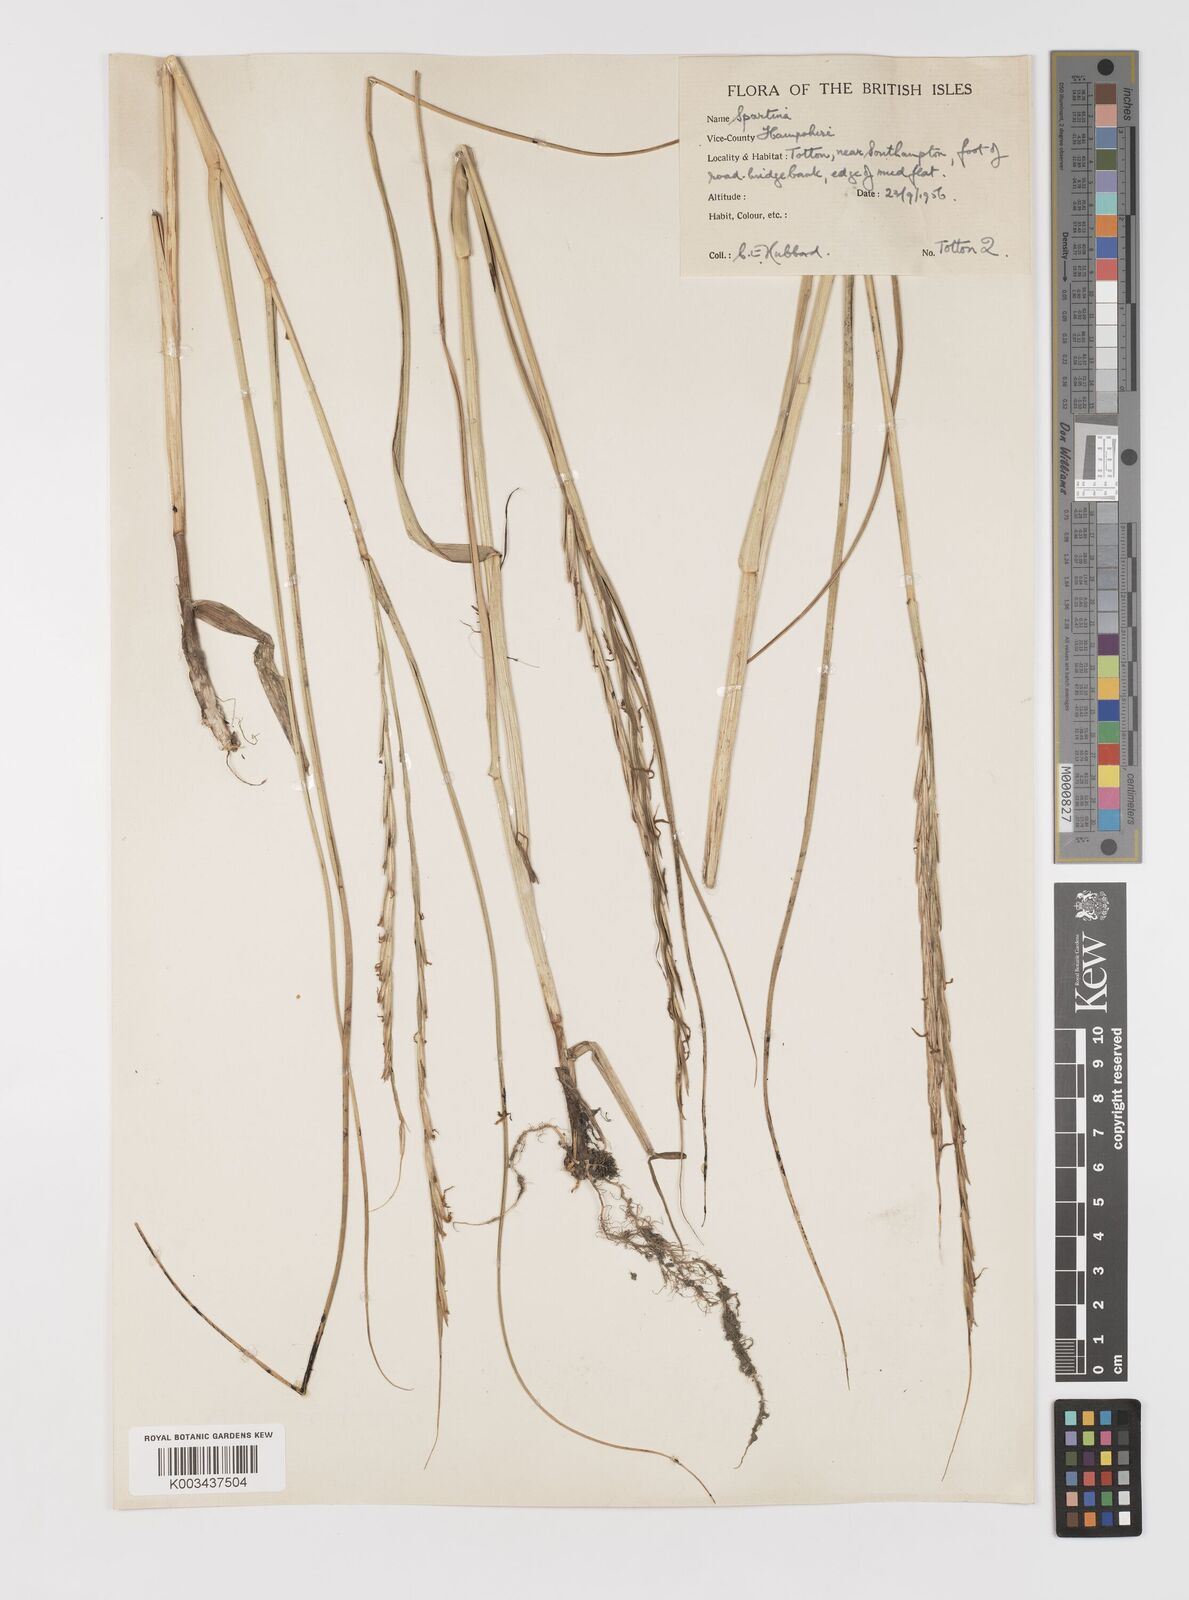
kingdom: Plantae
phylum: Tracheophyta
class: Liliopsida
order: Poales
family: Poaceae
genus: Sporobolus
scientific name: Sporobolus anglicus
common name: English cordgrass
